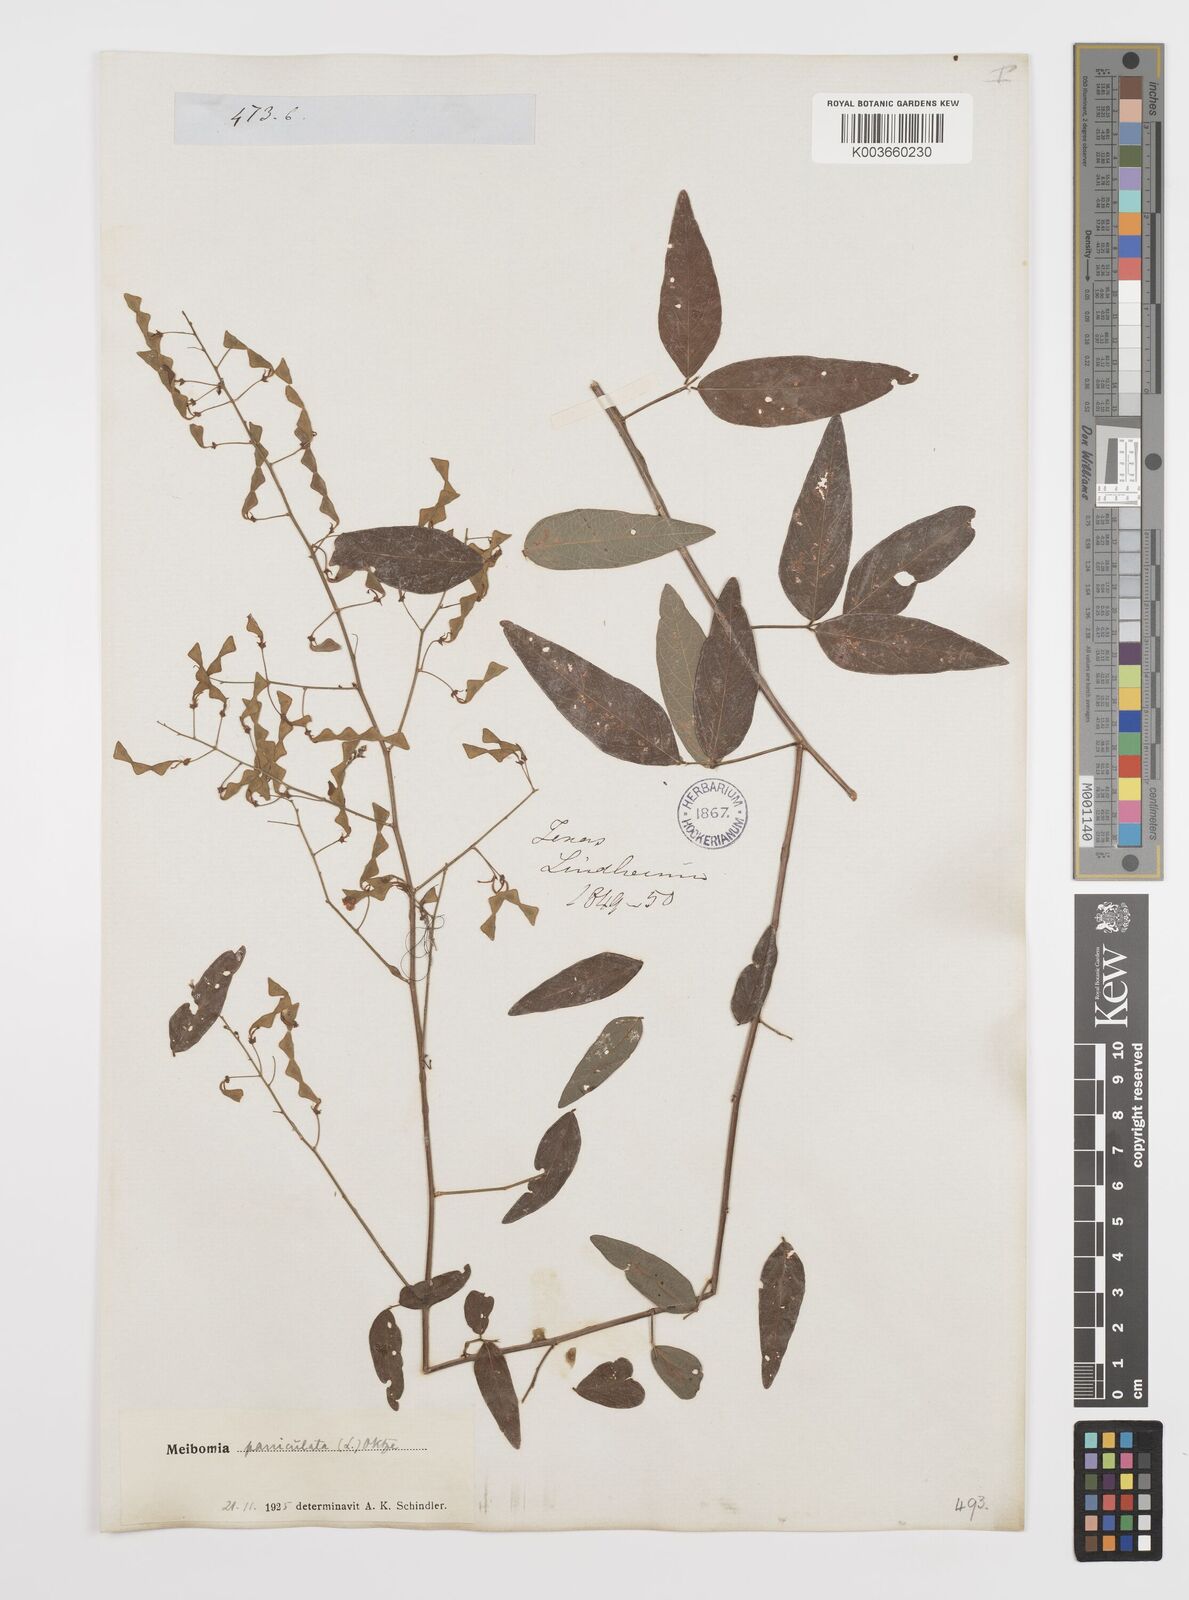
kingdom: Plantae
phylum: Tracheophyta
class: Magnoliopsida
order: Fabales
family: Fabaceae
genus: Desmodium
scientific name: Desmodium paniculatum
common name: Panicled tick-clover
